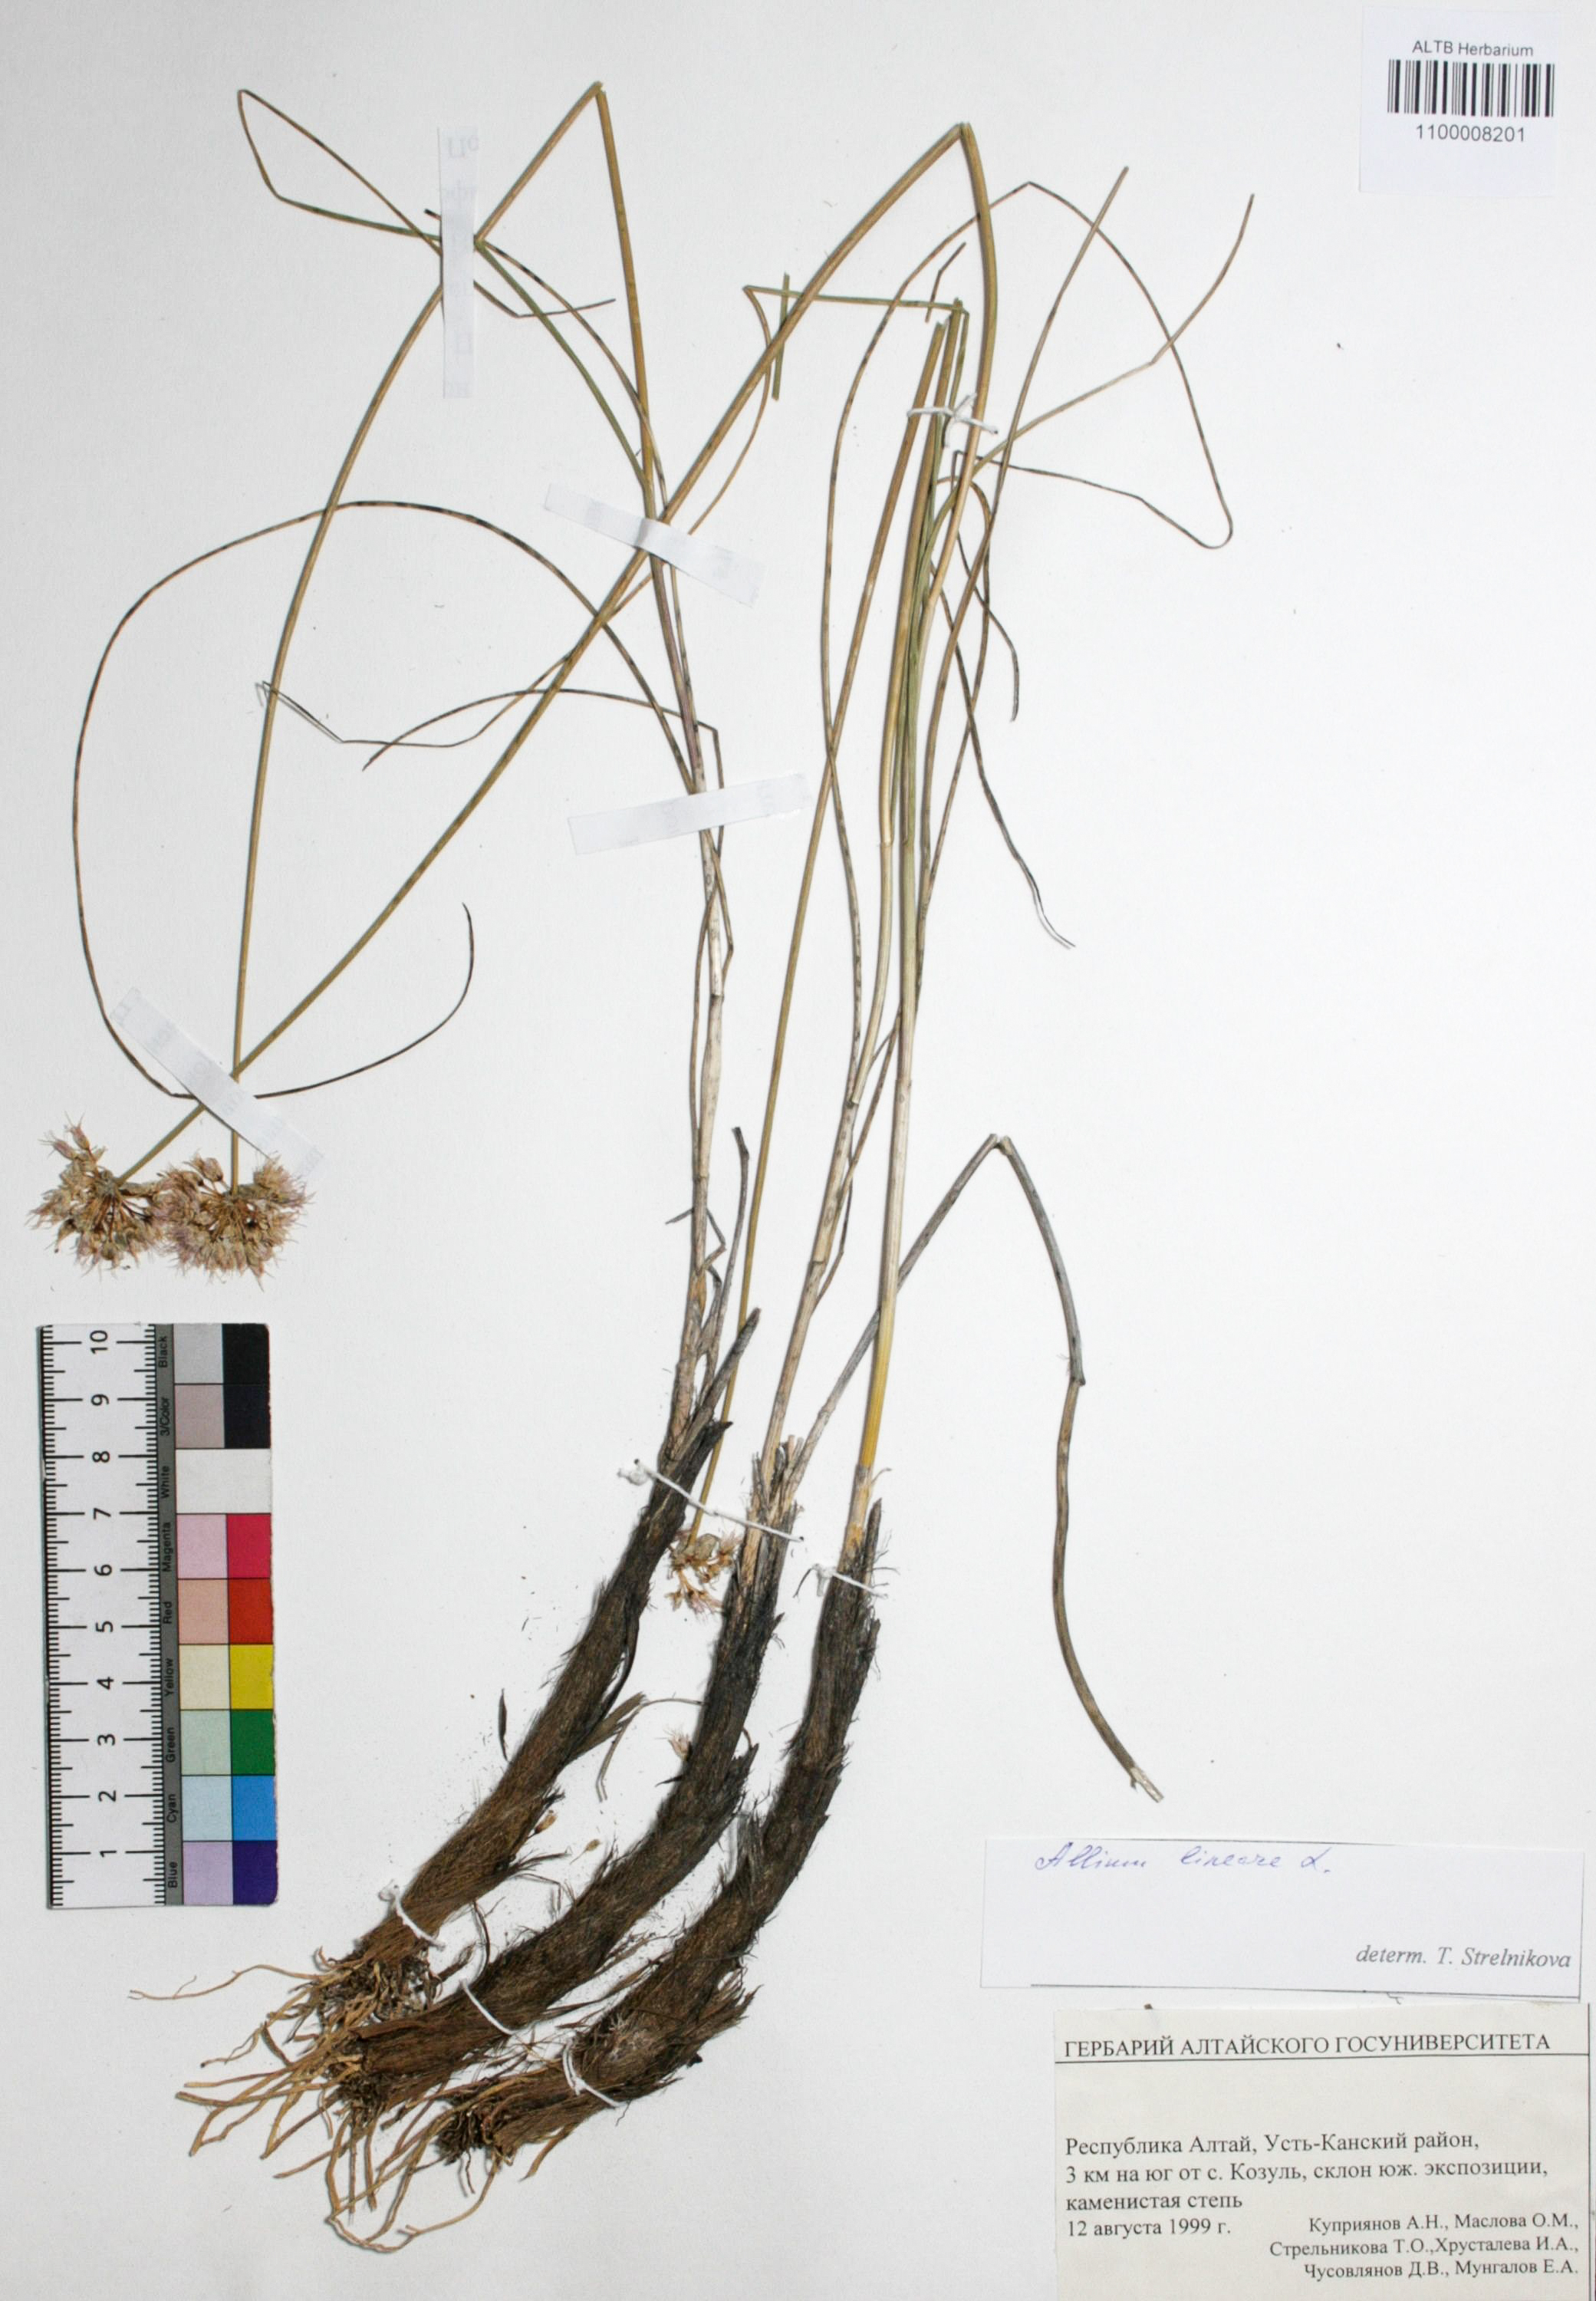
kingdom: Plantae
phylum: Tracheophyta
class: Liliopsida
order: Asparagales
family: Amaryllidaceae
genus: Allium
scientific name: Allium lineare
